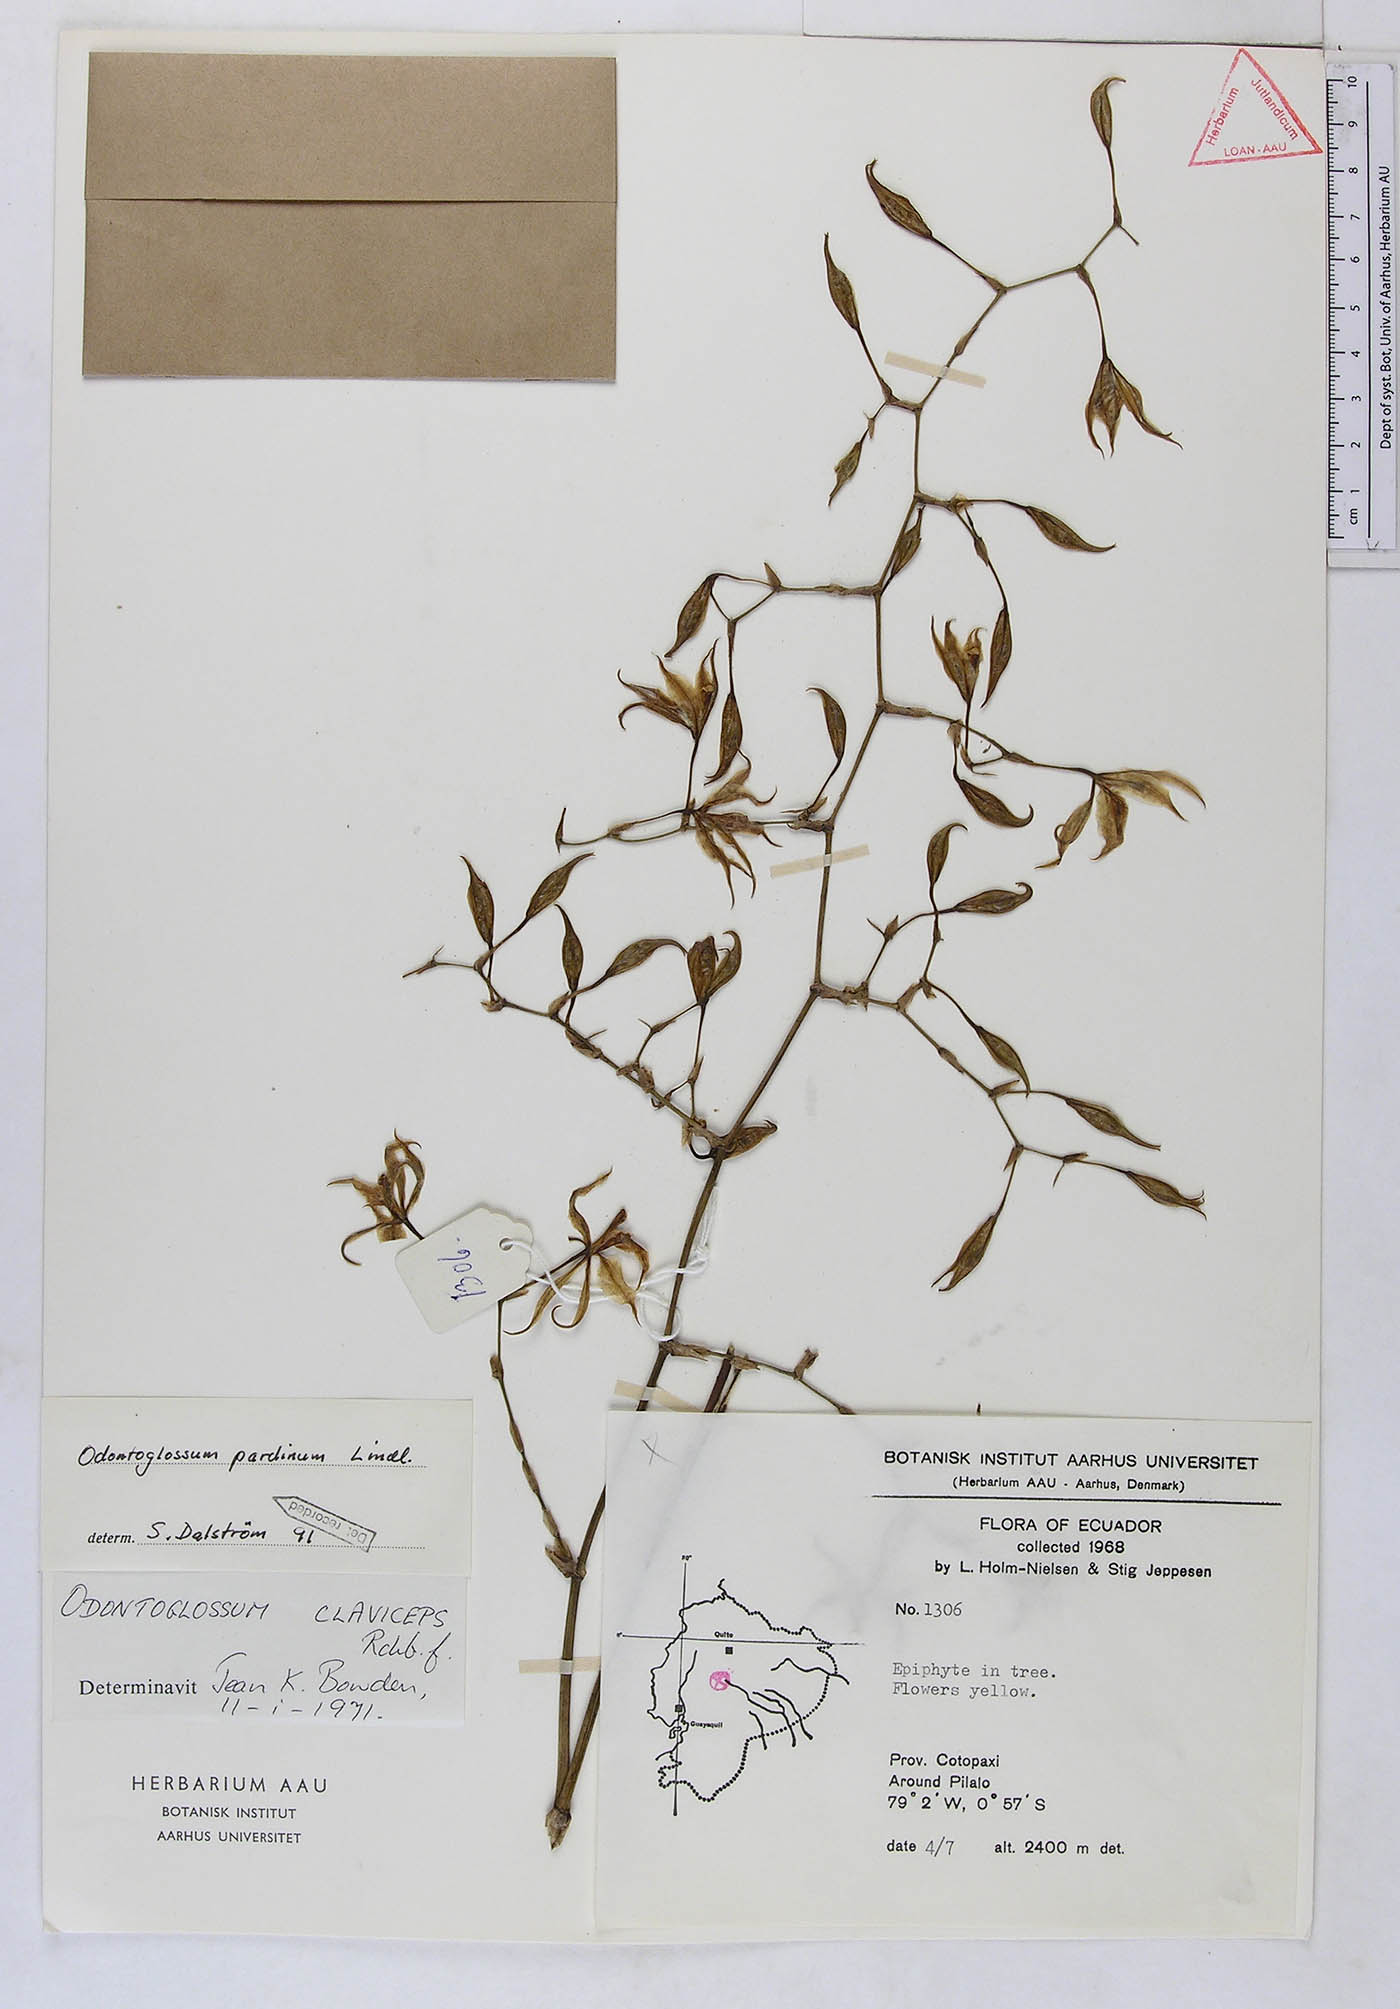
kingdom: Plantae
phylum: Tracheophyta
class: Liliopsida
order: Asparagales
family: Orchidaceae
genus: Cyrtochilum
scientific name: Cyrtochilum pardinum
